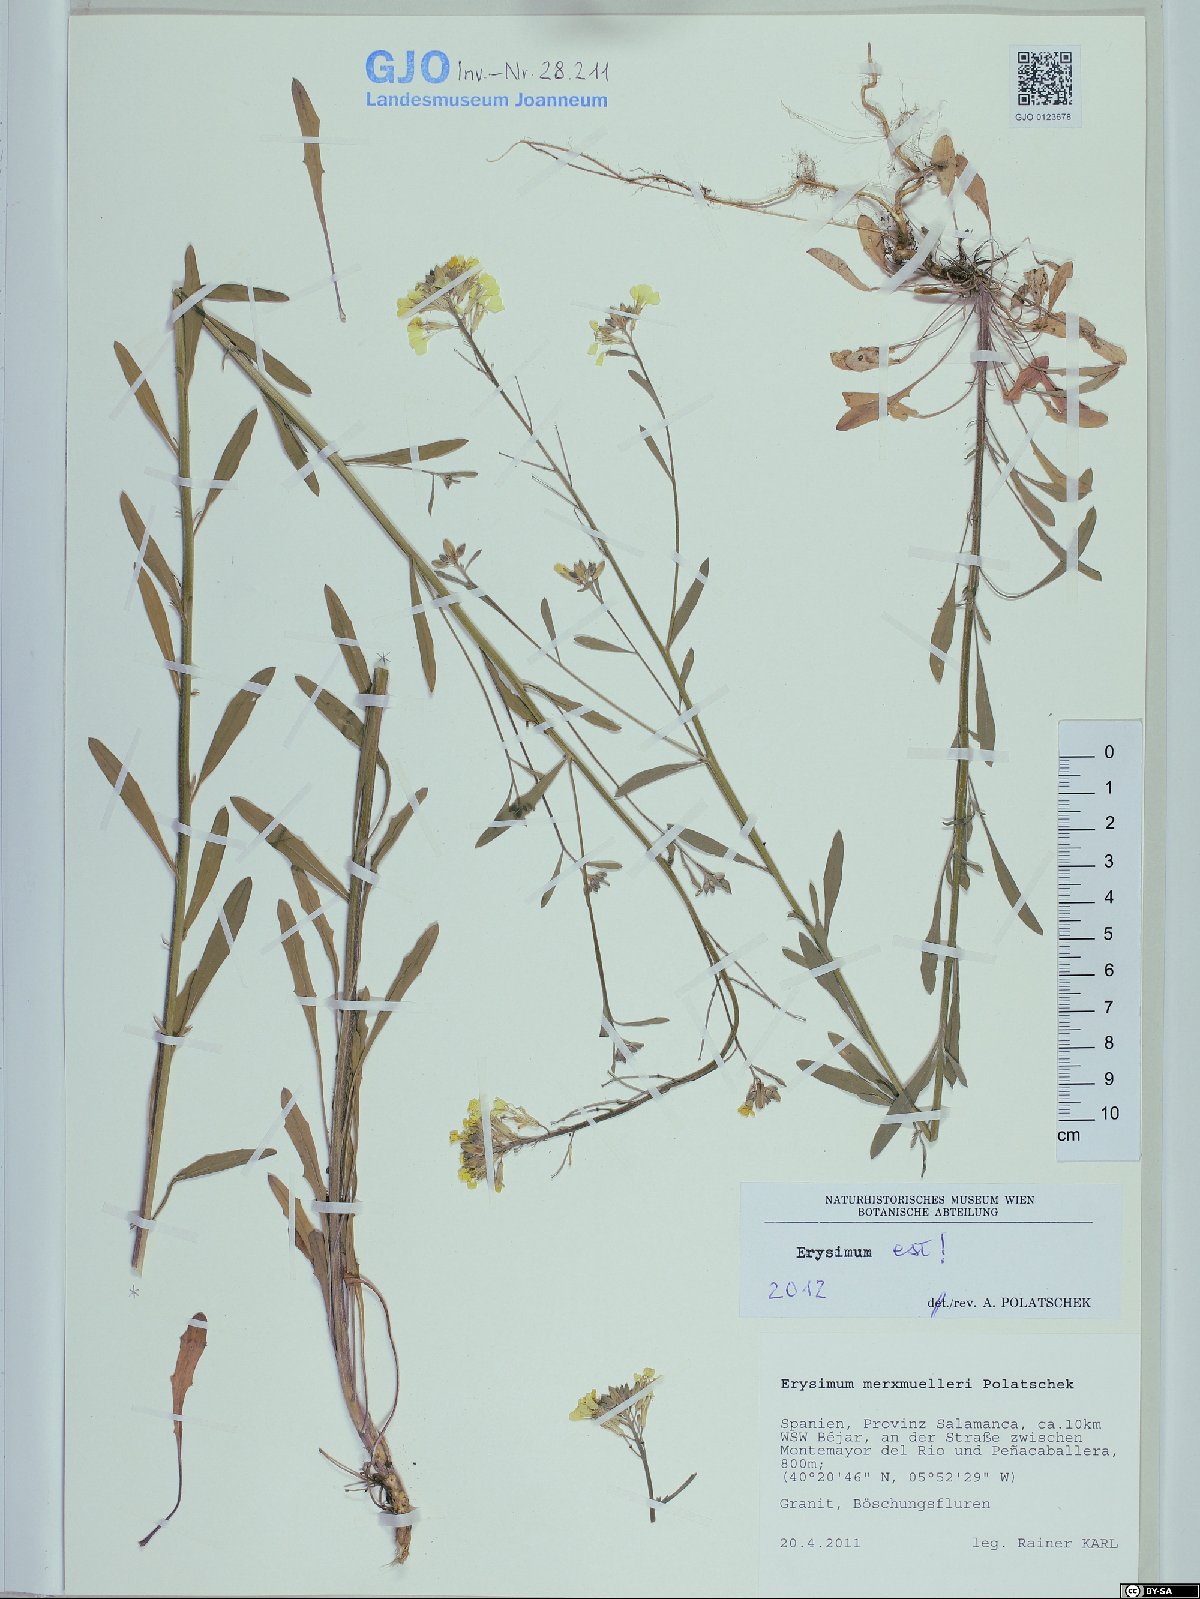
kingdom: Plantae
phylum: Tracheophyta
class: Magnoliopsida
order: Brassicales
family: Brassicaceae
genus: Erysimum
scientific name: Erysimum nevadense
